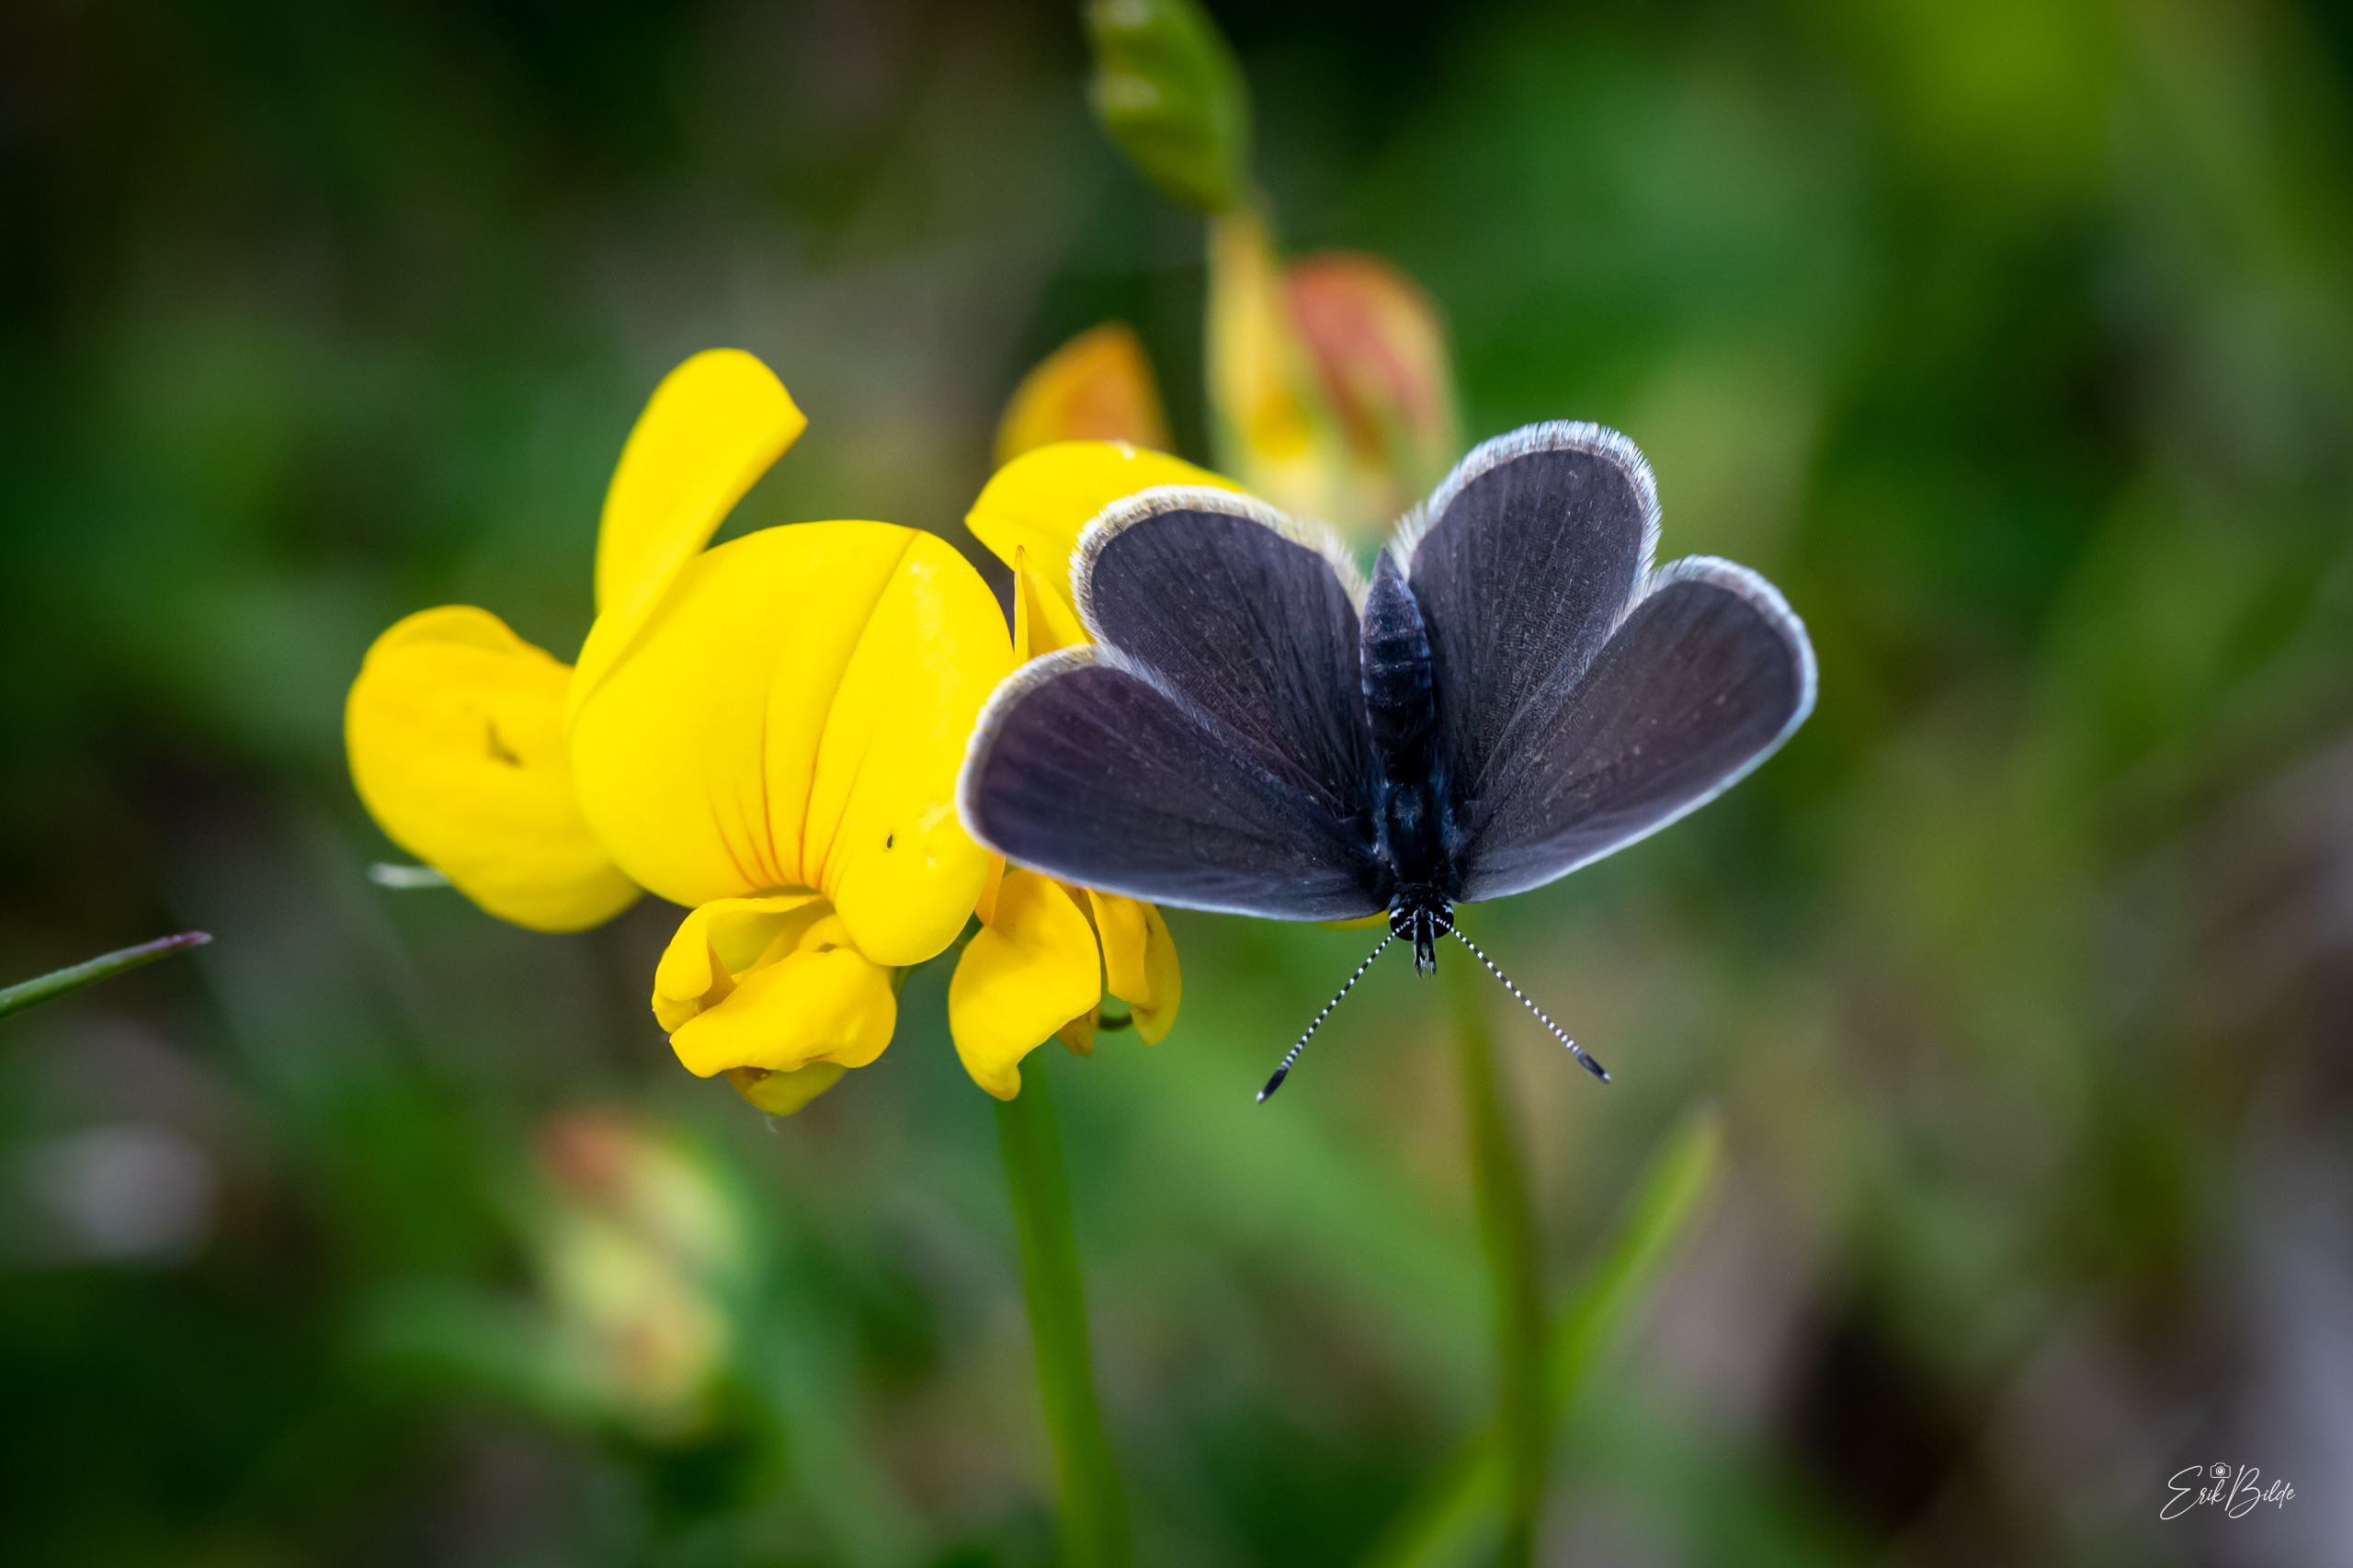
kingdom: Animalia
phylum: Arthropoda
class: Insecta
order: Lepidoptera
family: Lycaenidae
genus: Cupido
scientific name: Cupido minimus
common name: Dværgblåfugl
